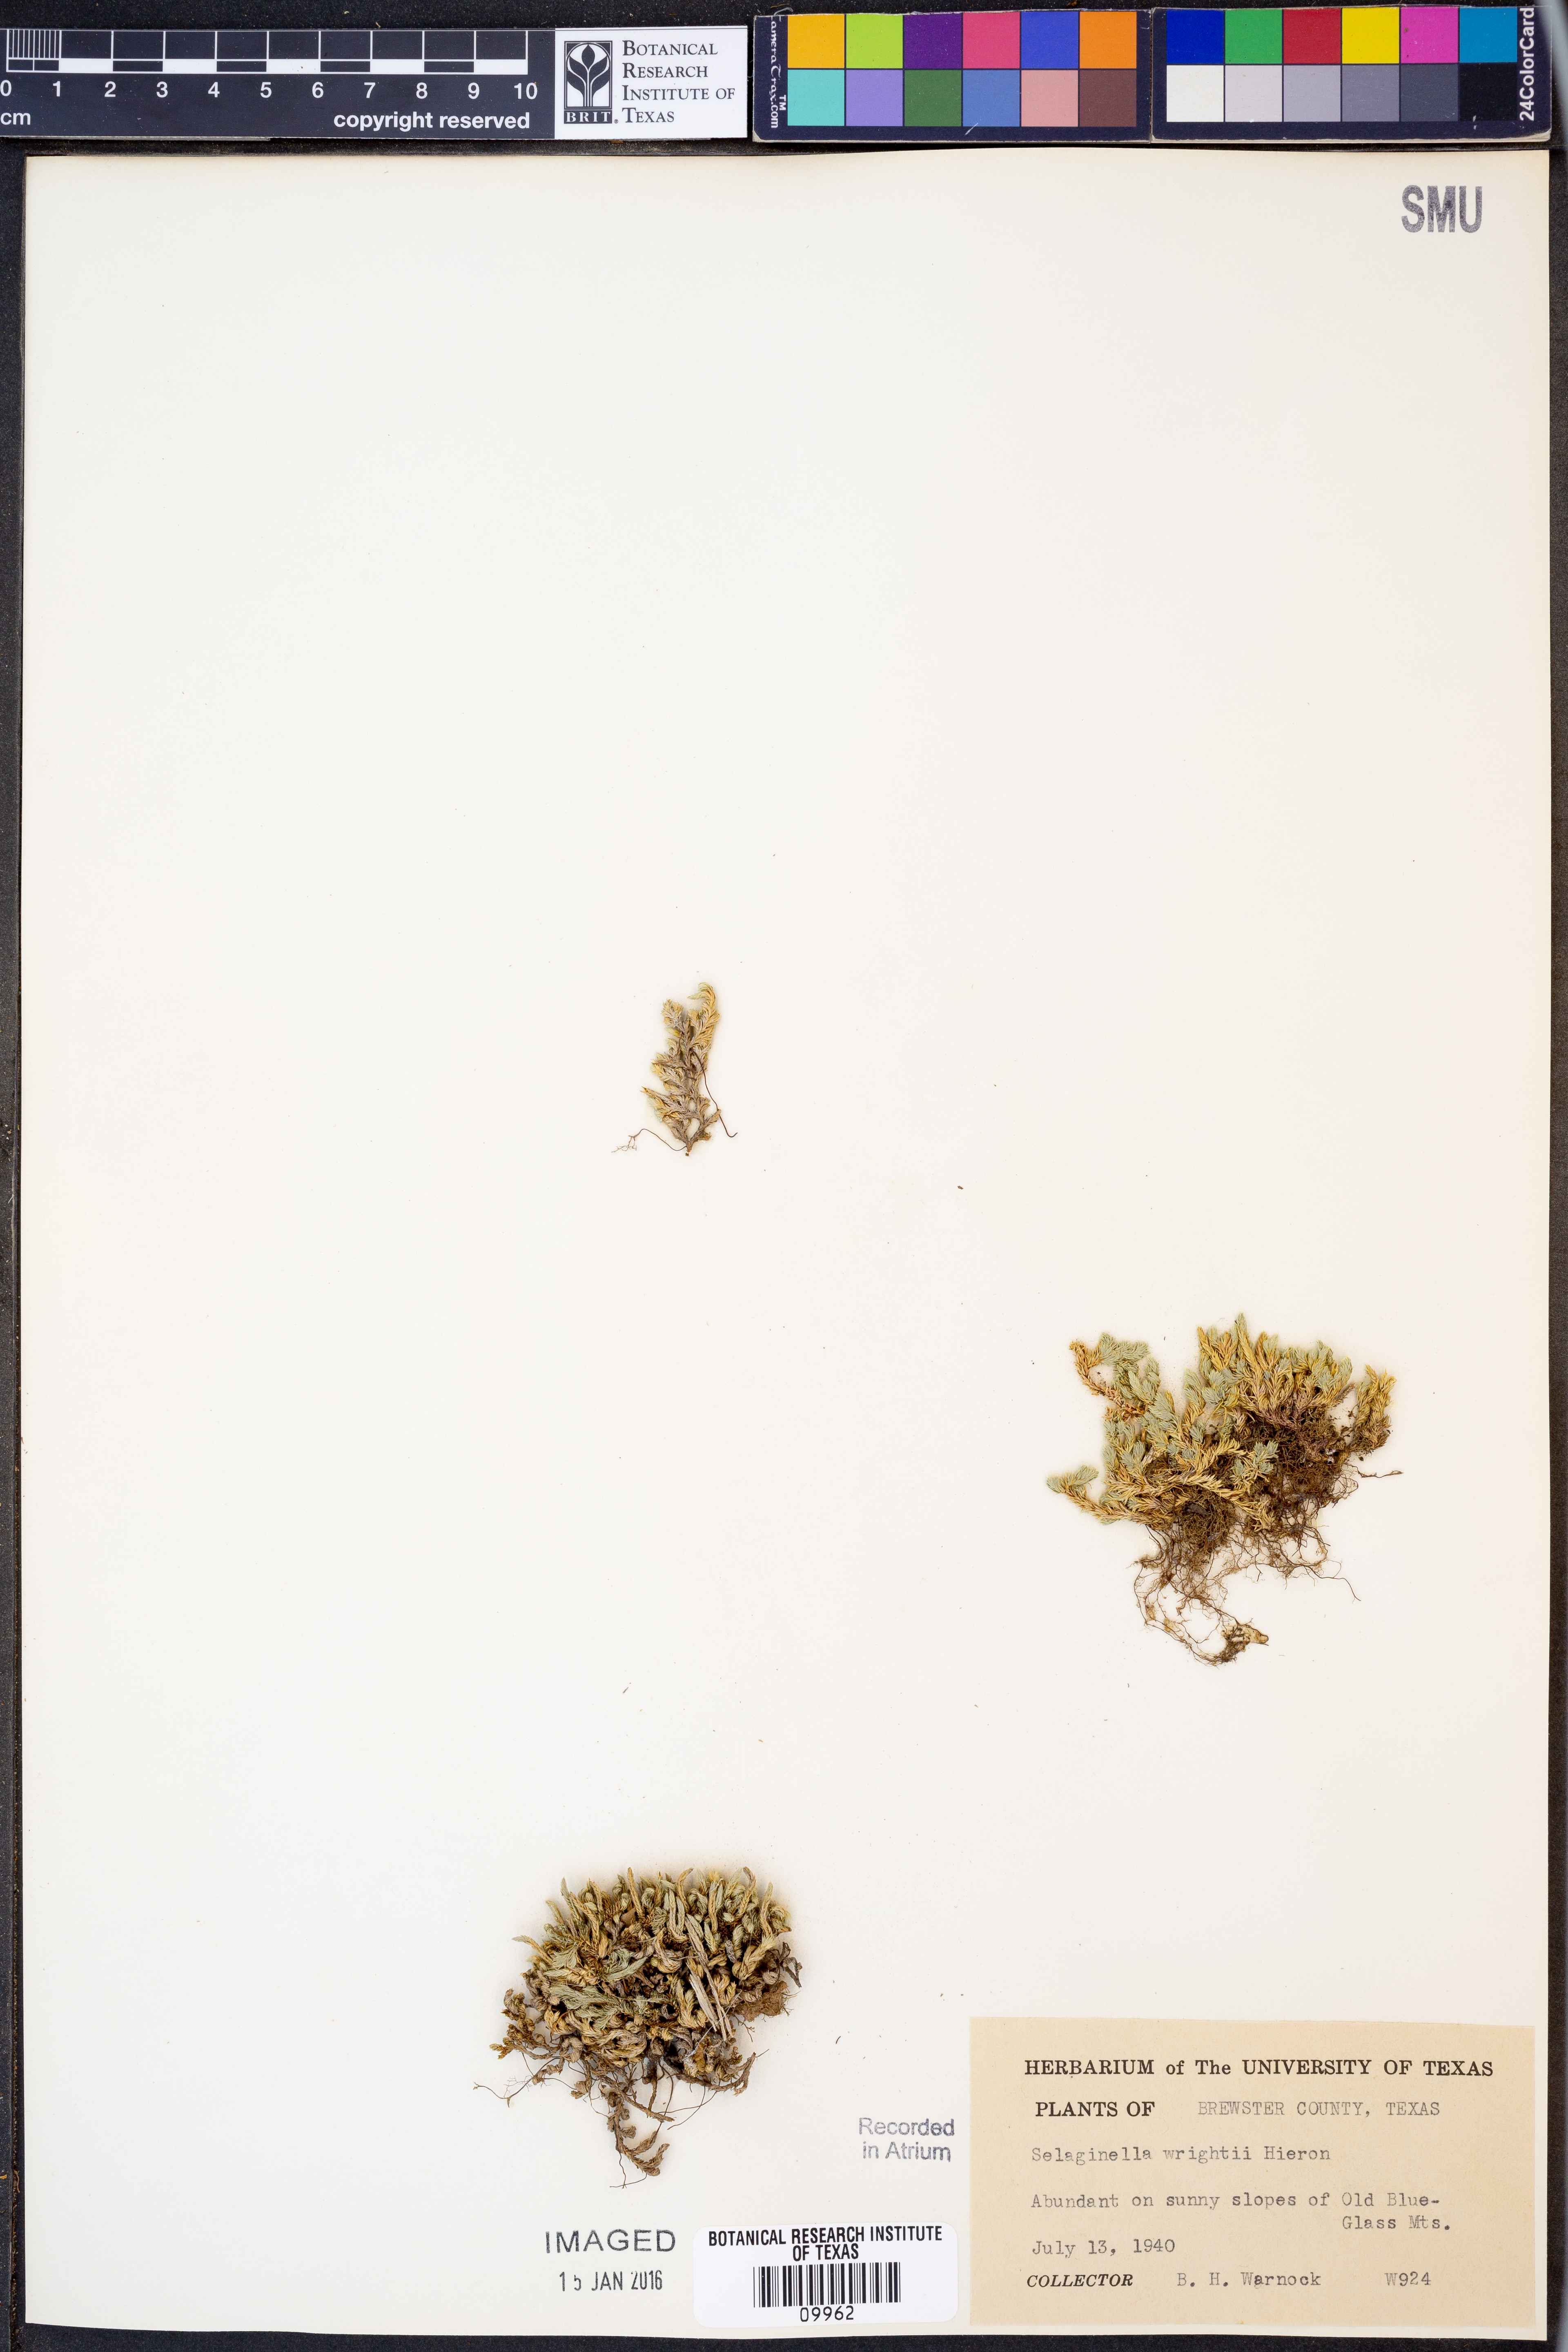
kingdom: Plantae
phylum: Tracheophyta
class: Lycopodiopsida
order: Selaginellales
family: Selaginellaceae
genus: Selaginella
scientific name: Selaginella wrightii
